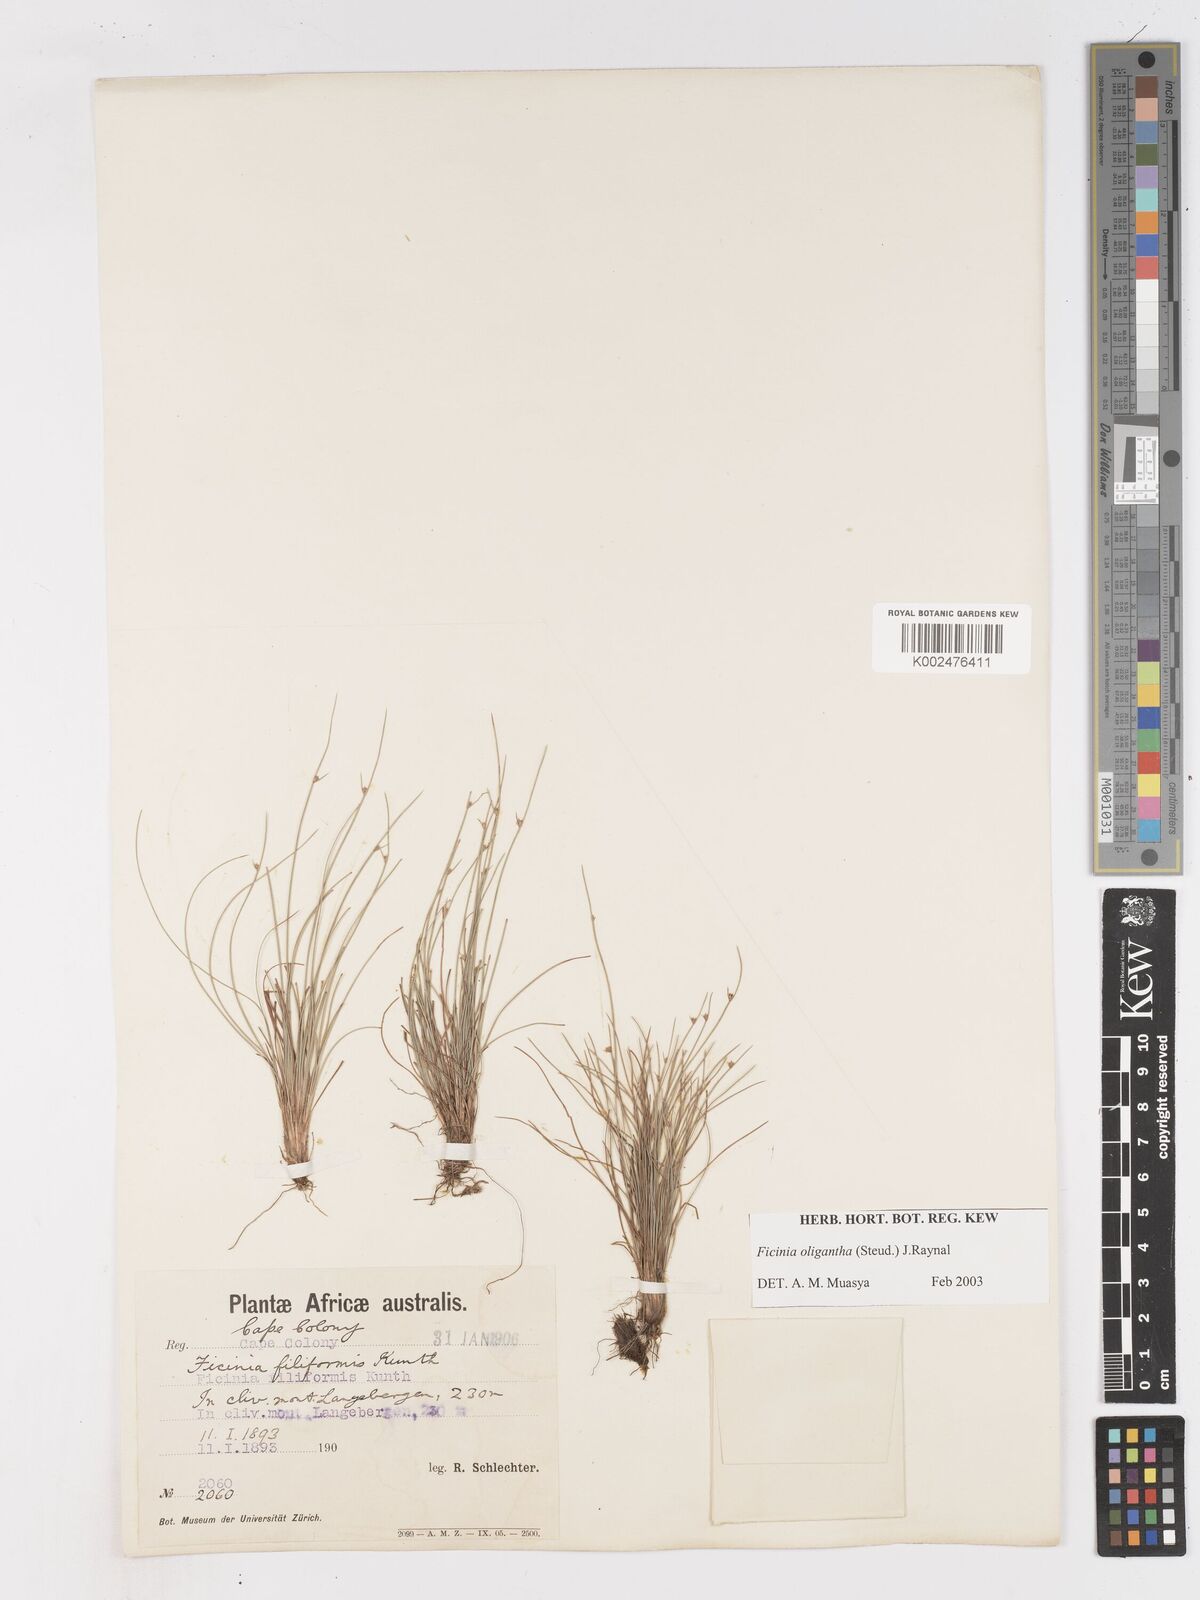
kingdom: Plantae
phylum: Tracheophyta
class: Liliopsida
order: Poales
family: Cyperaceae
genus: Ficinia
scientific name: Ficinia
